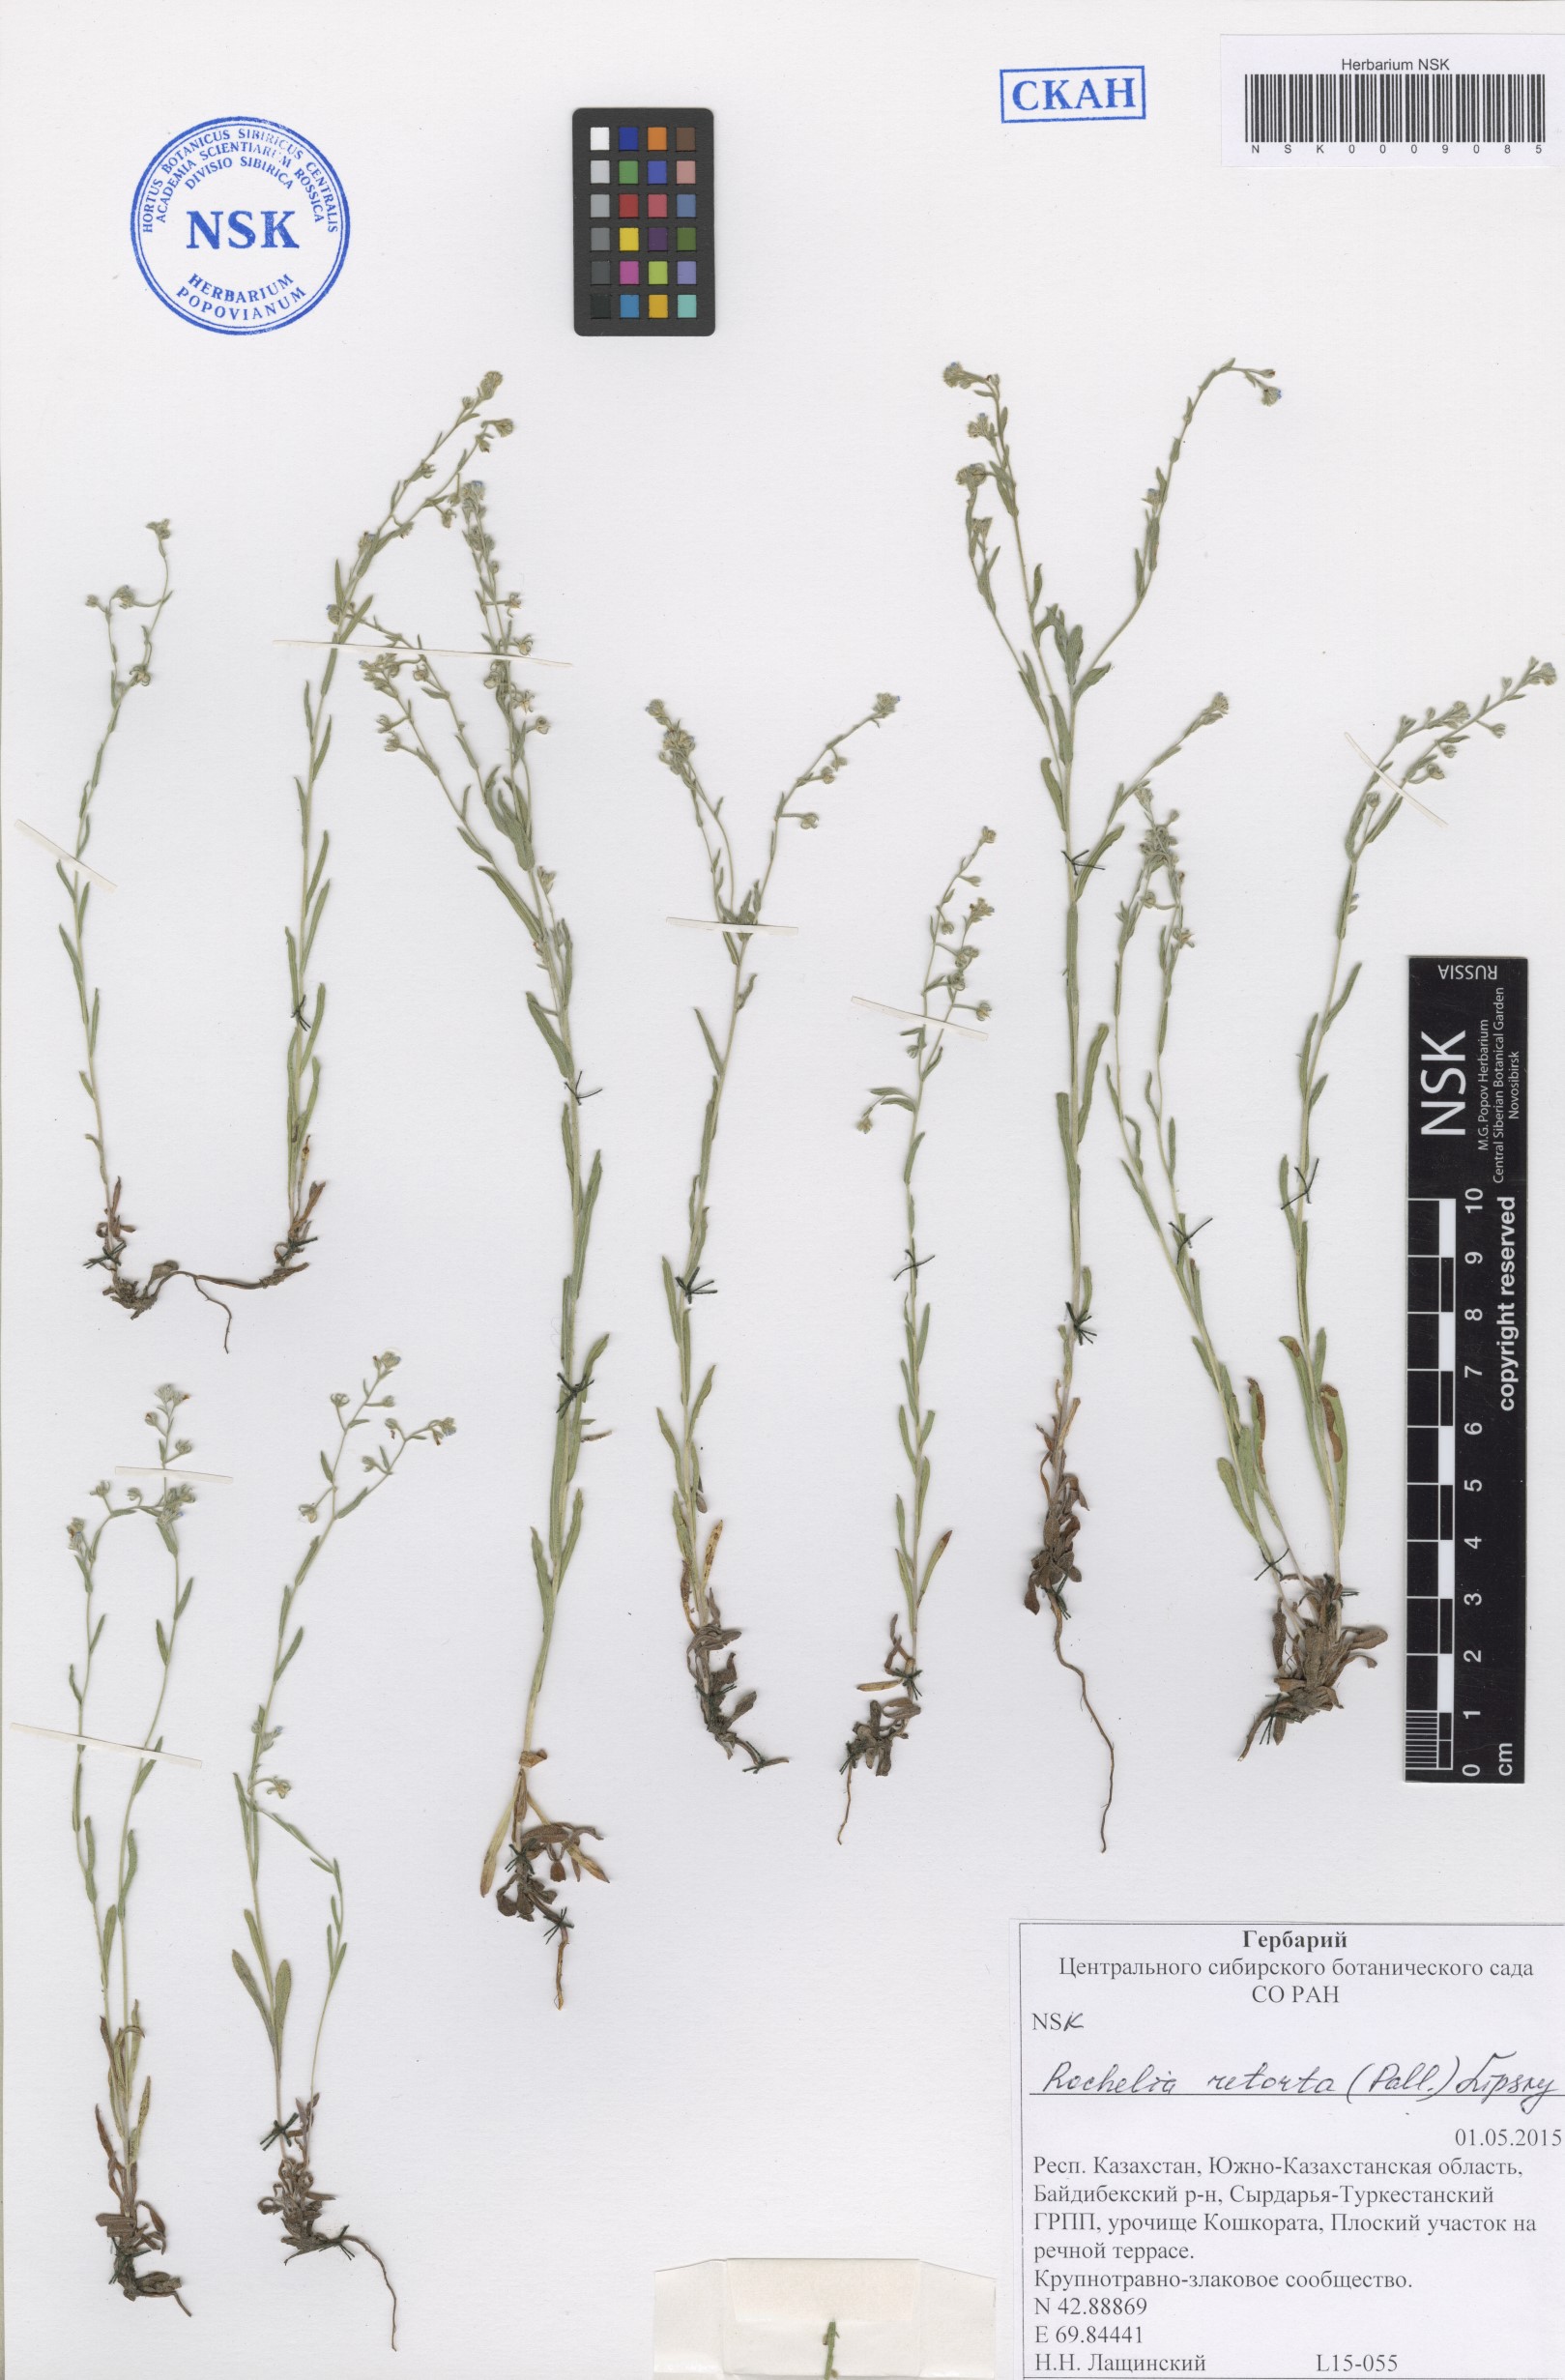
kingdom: Plantae
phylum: Tracheophyta
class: Magnoliopsida
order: Boraginales
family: Boraginaceae
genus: Rochelia
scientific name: Rochelia retorta
